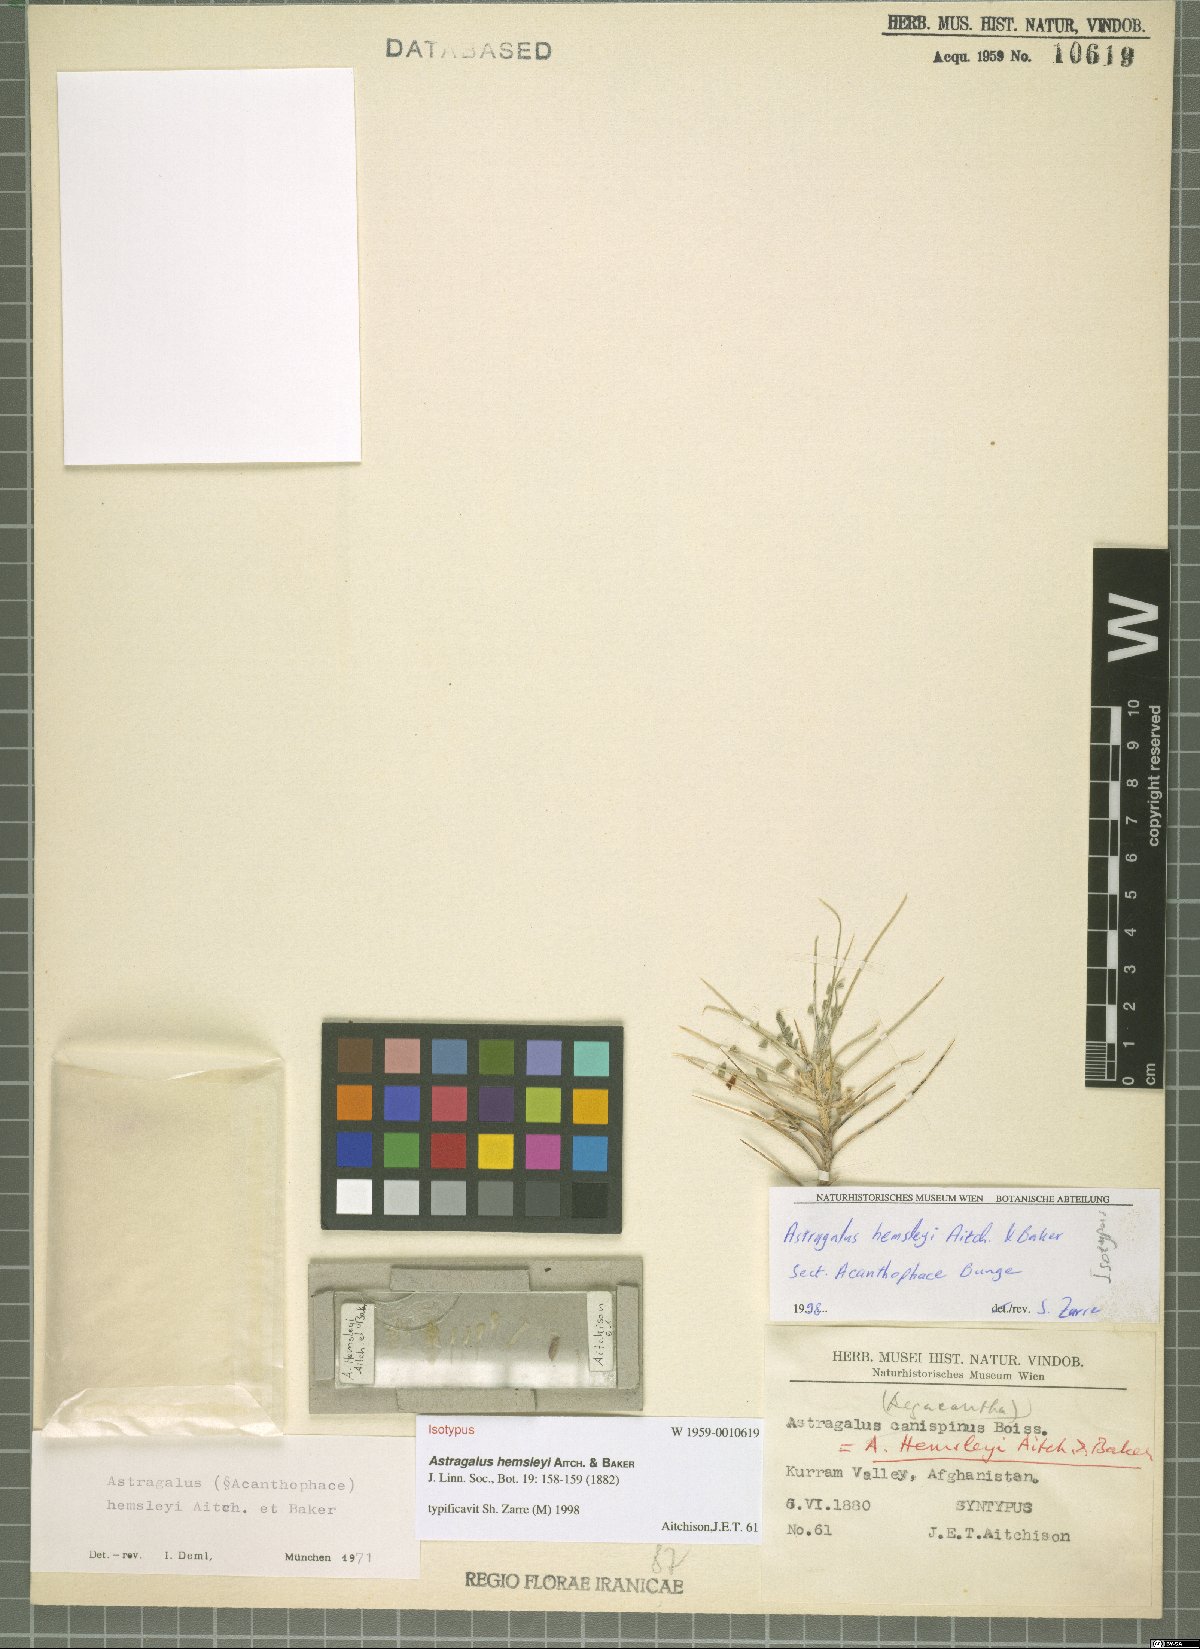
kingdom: Plantae
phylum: Tracheophyta
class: Magnoliopsida
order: Fabales
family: Fabaceae
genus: Astragalus
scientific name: Astragalus hemsleyi
